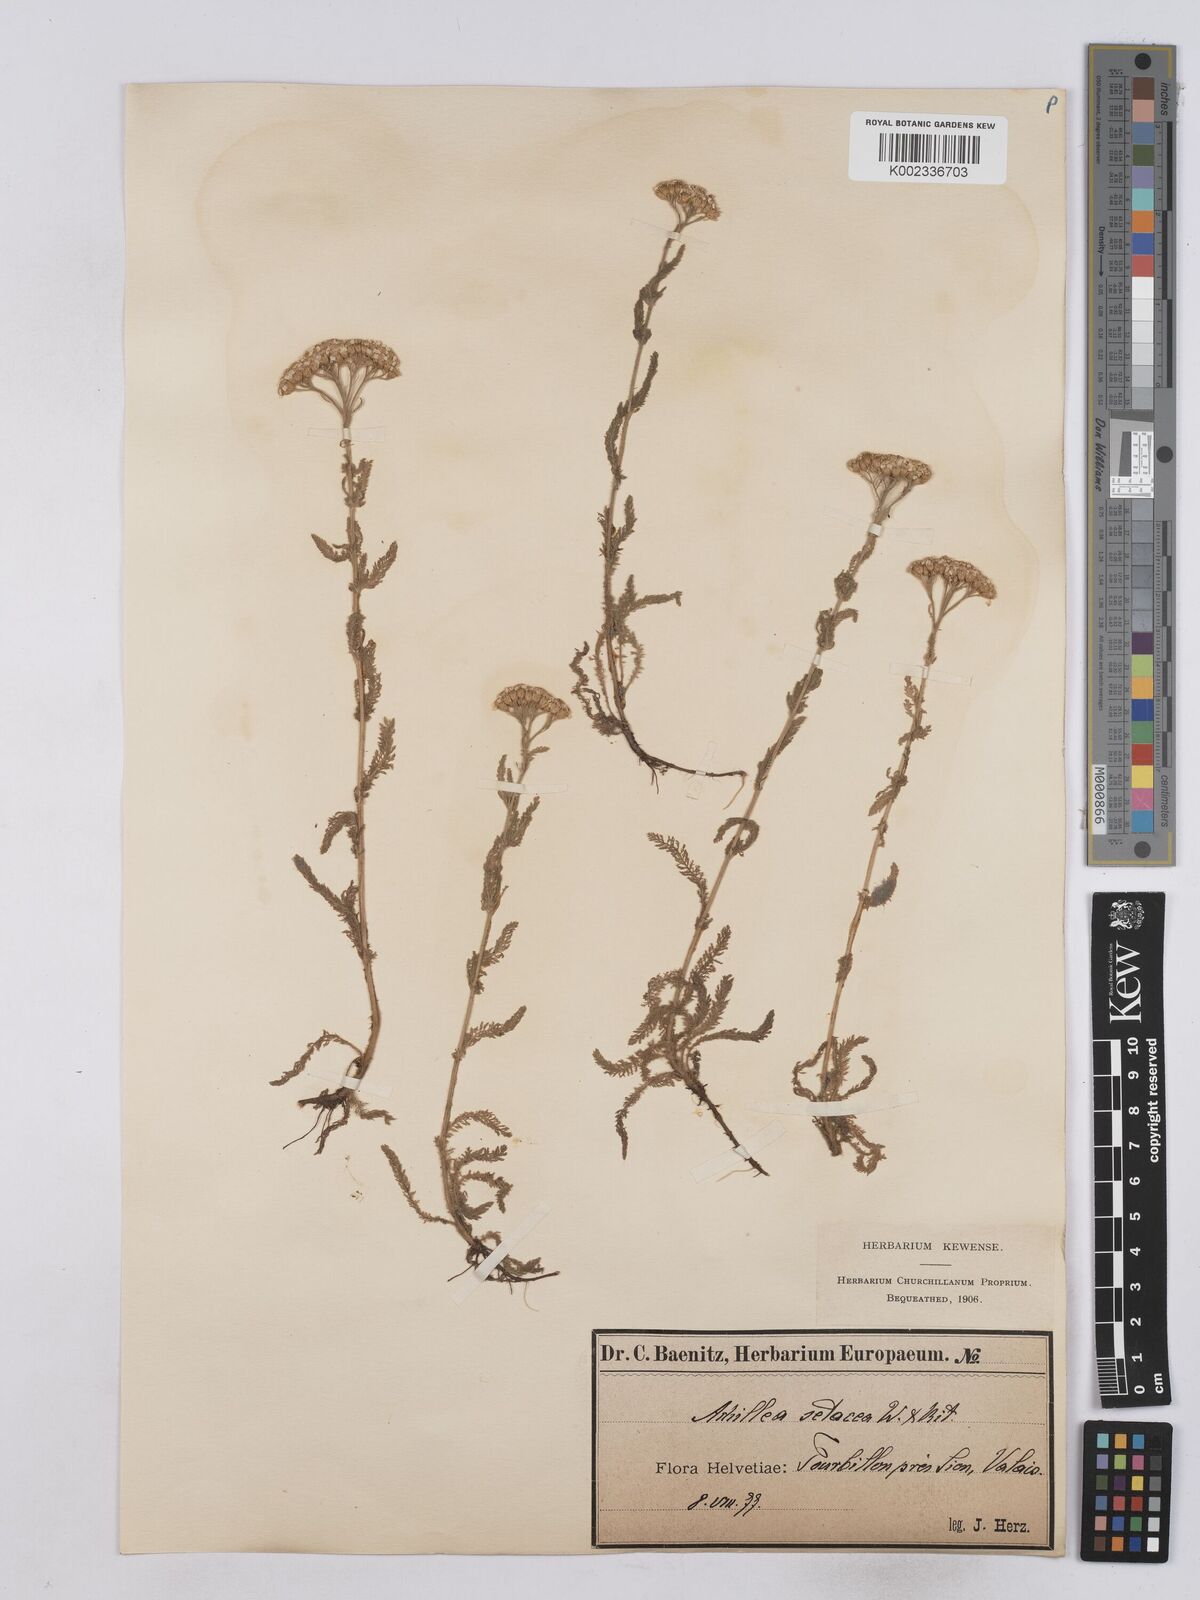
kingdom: Plantae
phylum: Tracheophyta
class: Magnoliopsida
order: Asterales
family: Asteraceae
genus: Achillea
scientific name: Achillea setacea
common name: Bristly yarrow
